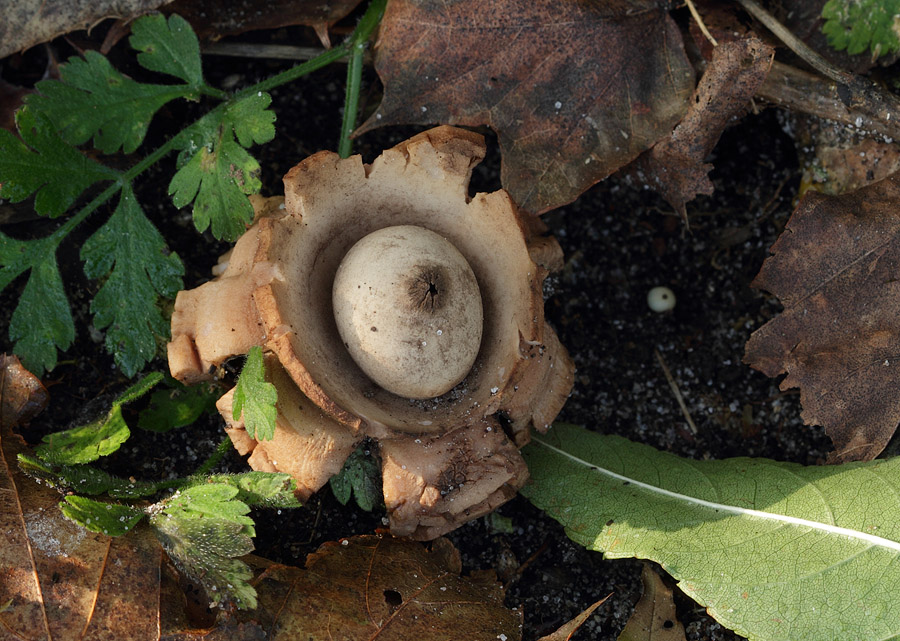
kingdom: Fungi
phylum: Basidiomycota
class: Agaricomycetes
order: Geastrales
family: Geastraceae
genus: Geastrum
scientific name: Geastrum michelianum
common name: kødet stjernebold
